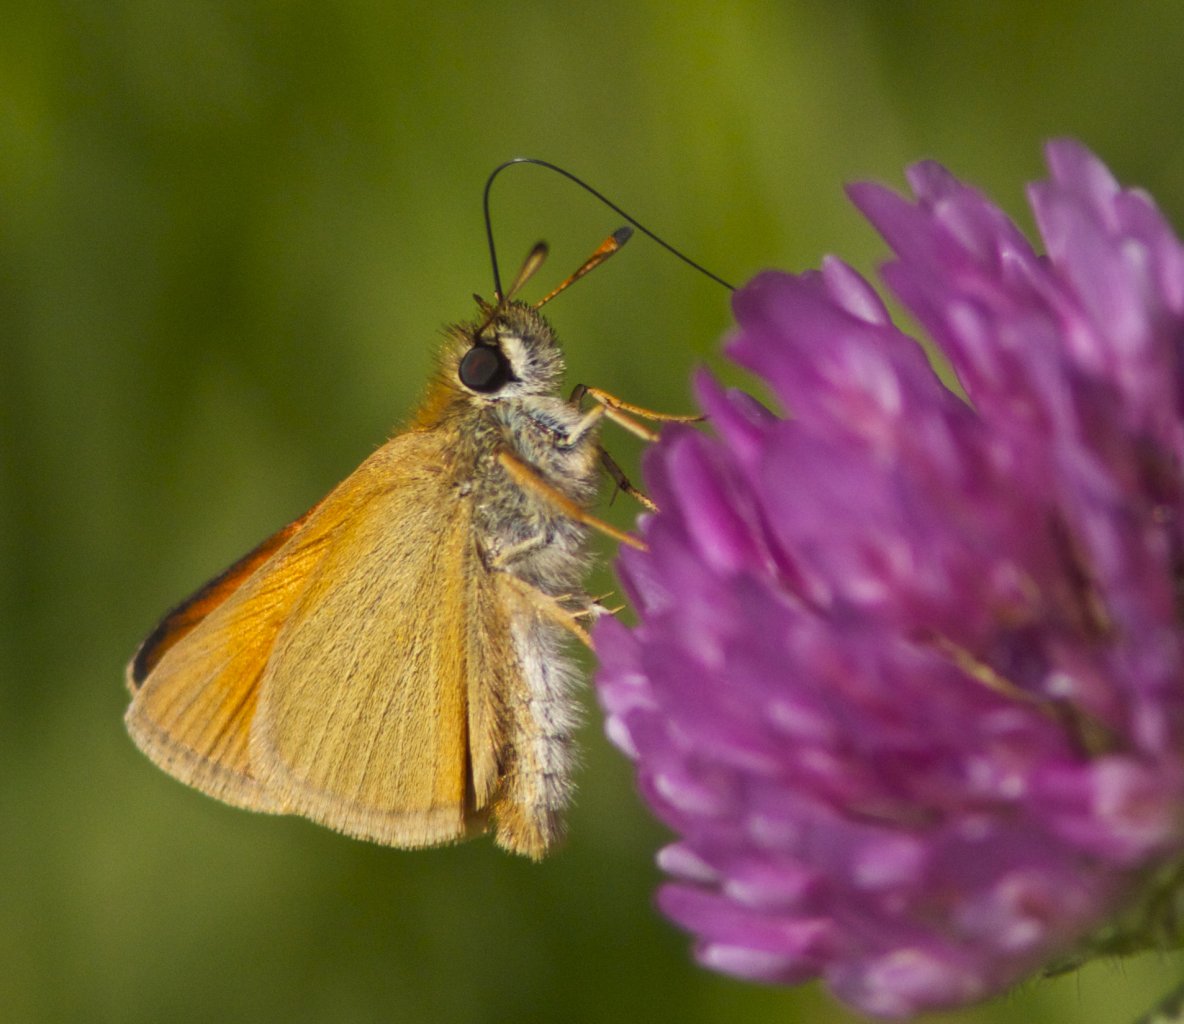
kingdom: Animalia
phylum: Arthropoda
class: Insecta
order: Lepidoptera
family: Hesperiidae
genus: Thymelicus
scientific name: Thymelicus lineola
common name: European Skipper
